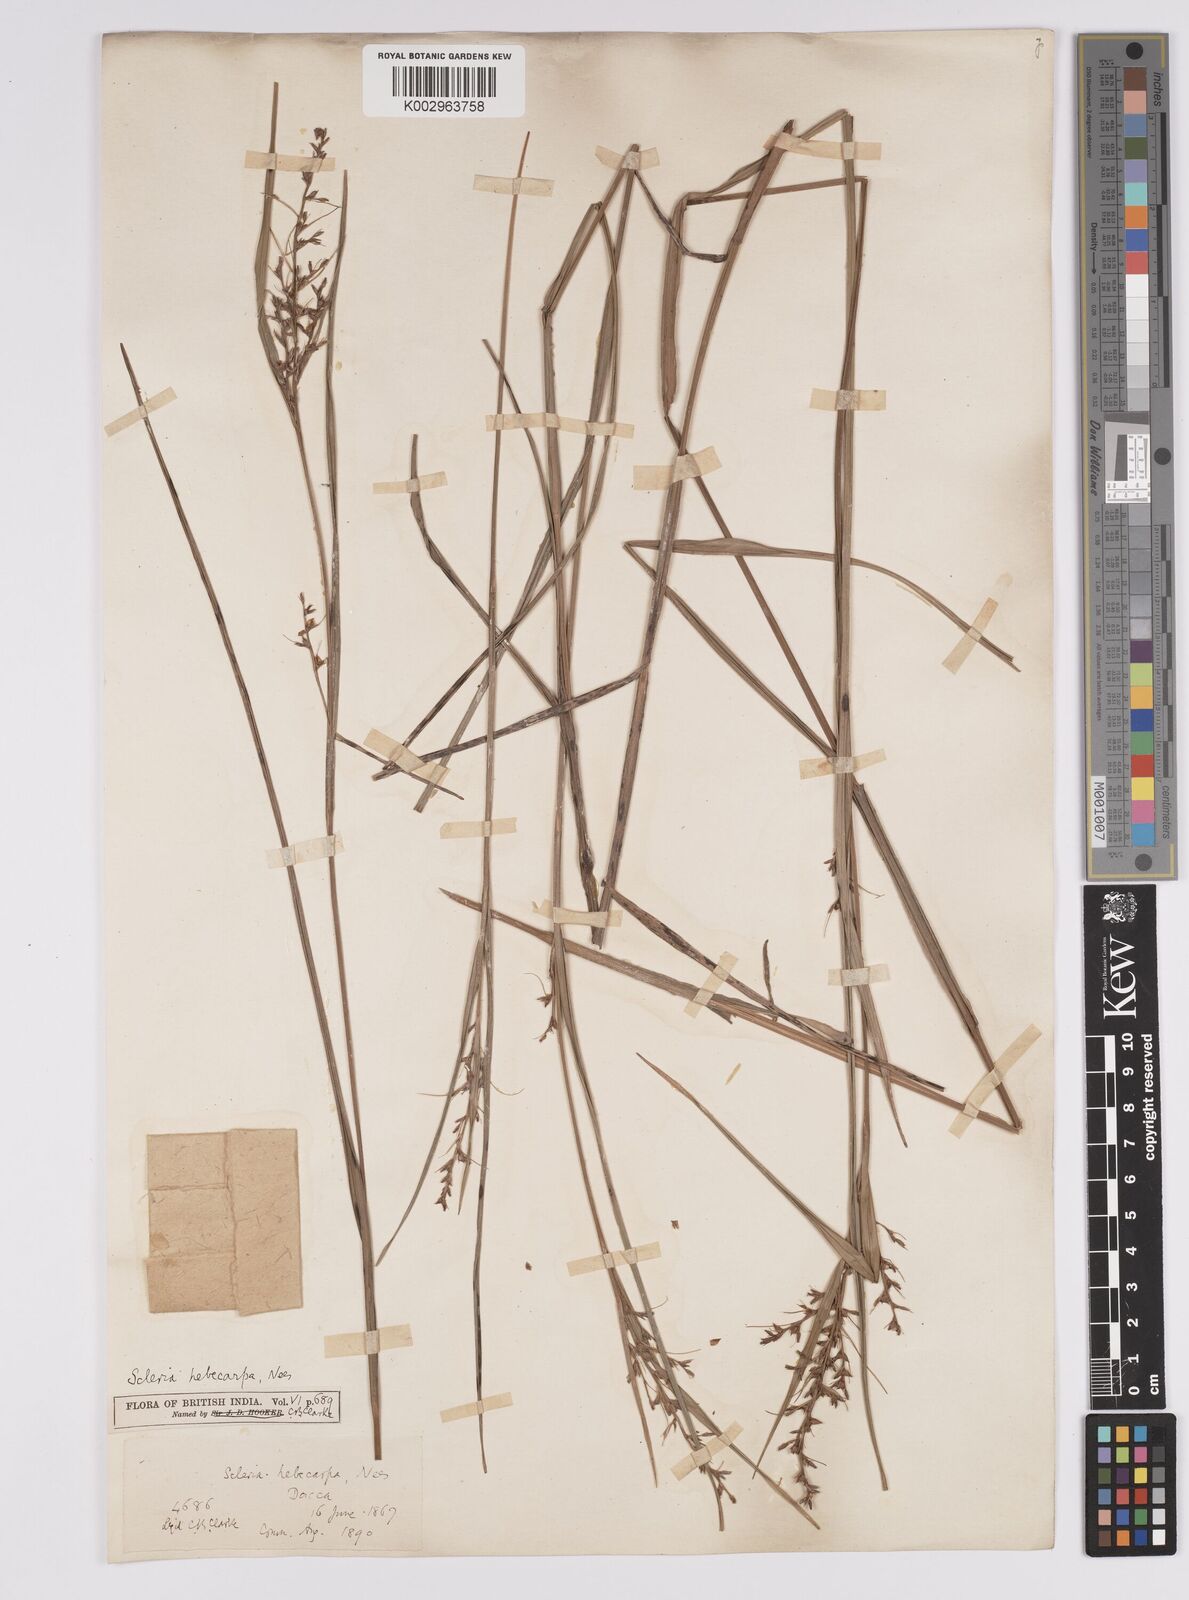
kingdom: Plantae
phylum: Tracheophyta
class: Liliopsida
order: Poales
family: Cyperaceae
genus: Scleria
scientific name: Scleria levis
